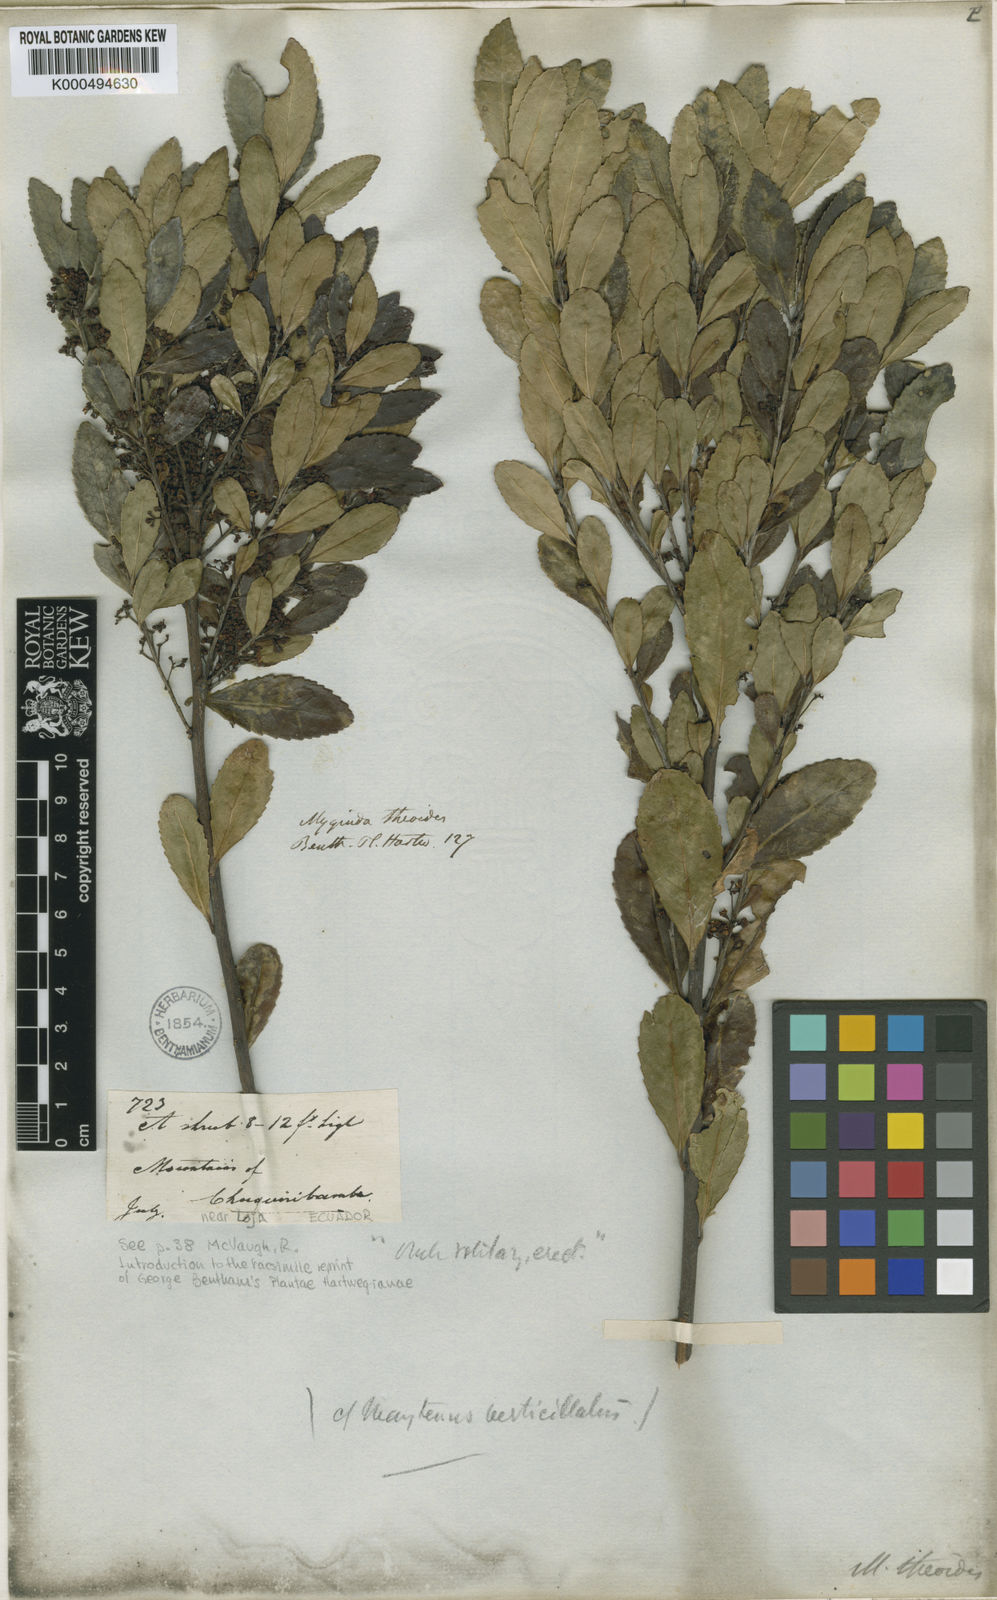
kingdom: Plantae
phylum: Tracheophyta
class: Magnoliopsida
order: Celastrales
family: Celastraceae
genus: Crossopetalum
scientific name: Crossopetalum
